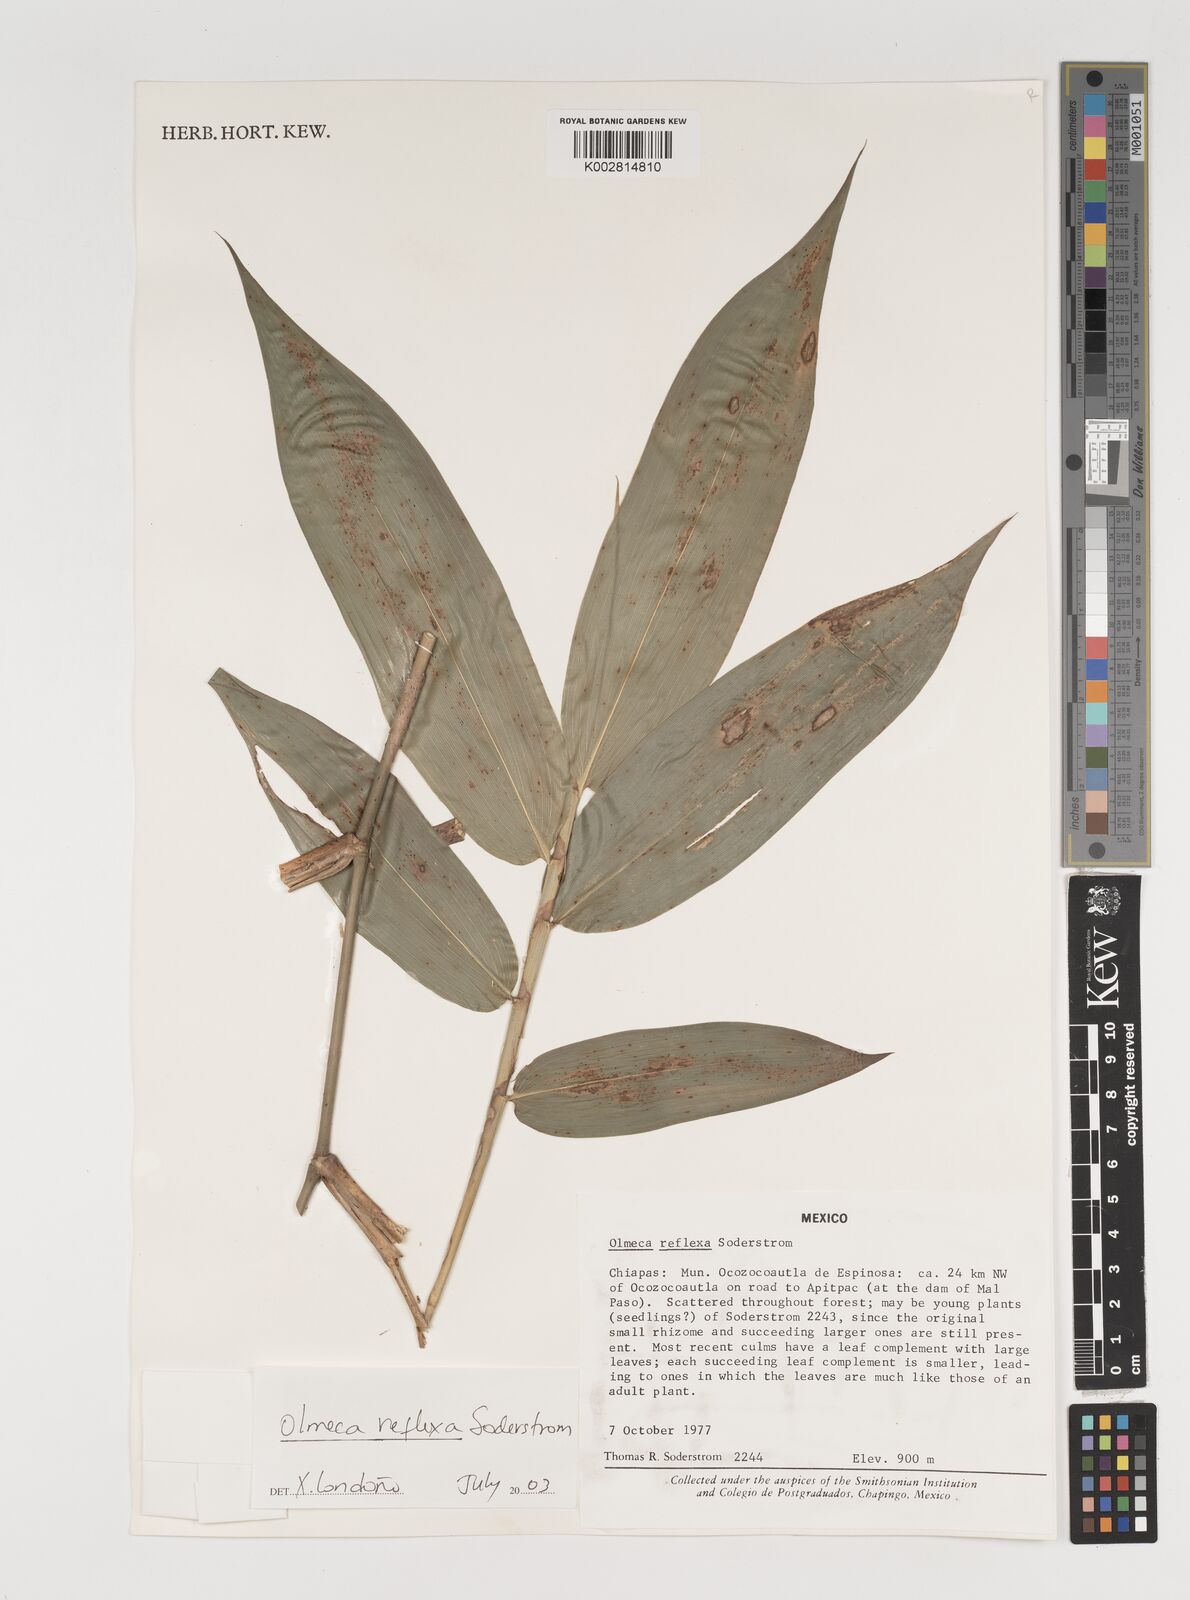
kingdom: Plantae
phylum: Tracheophyta
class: Liliopsida
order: Poales
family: Poaceae
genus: Olmeca
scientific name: Olmeca reflexa
